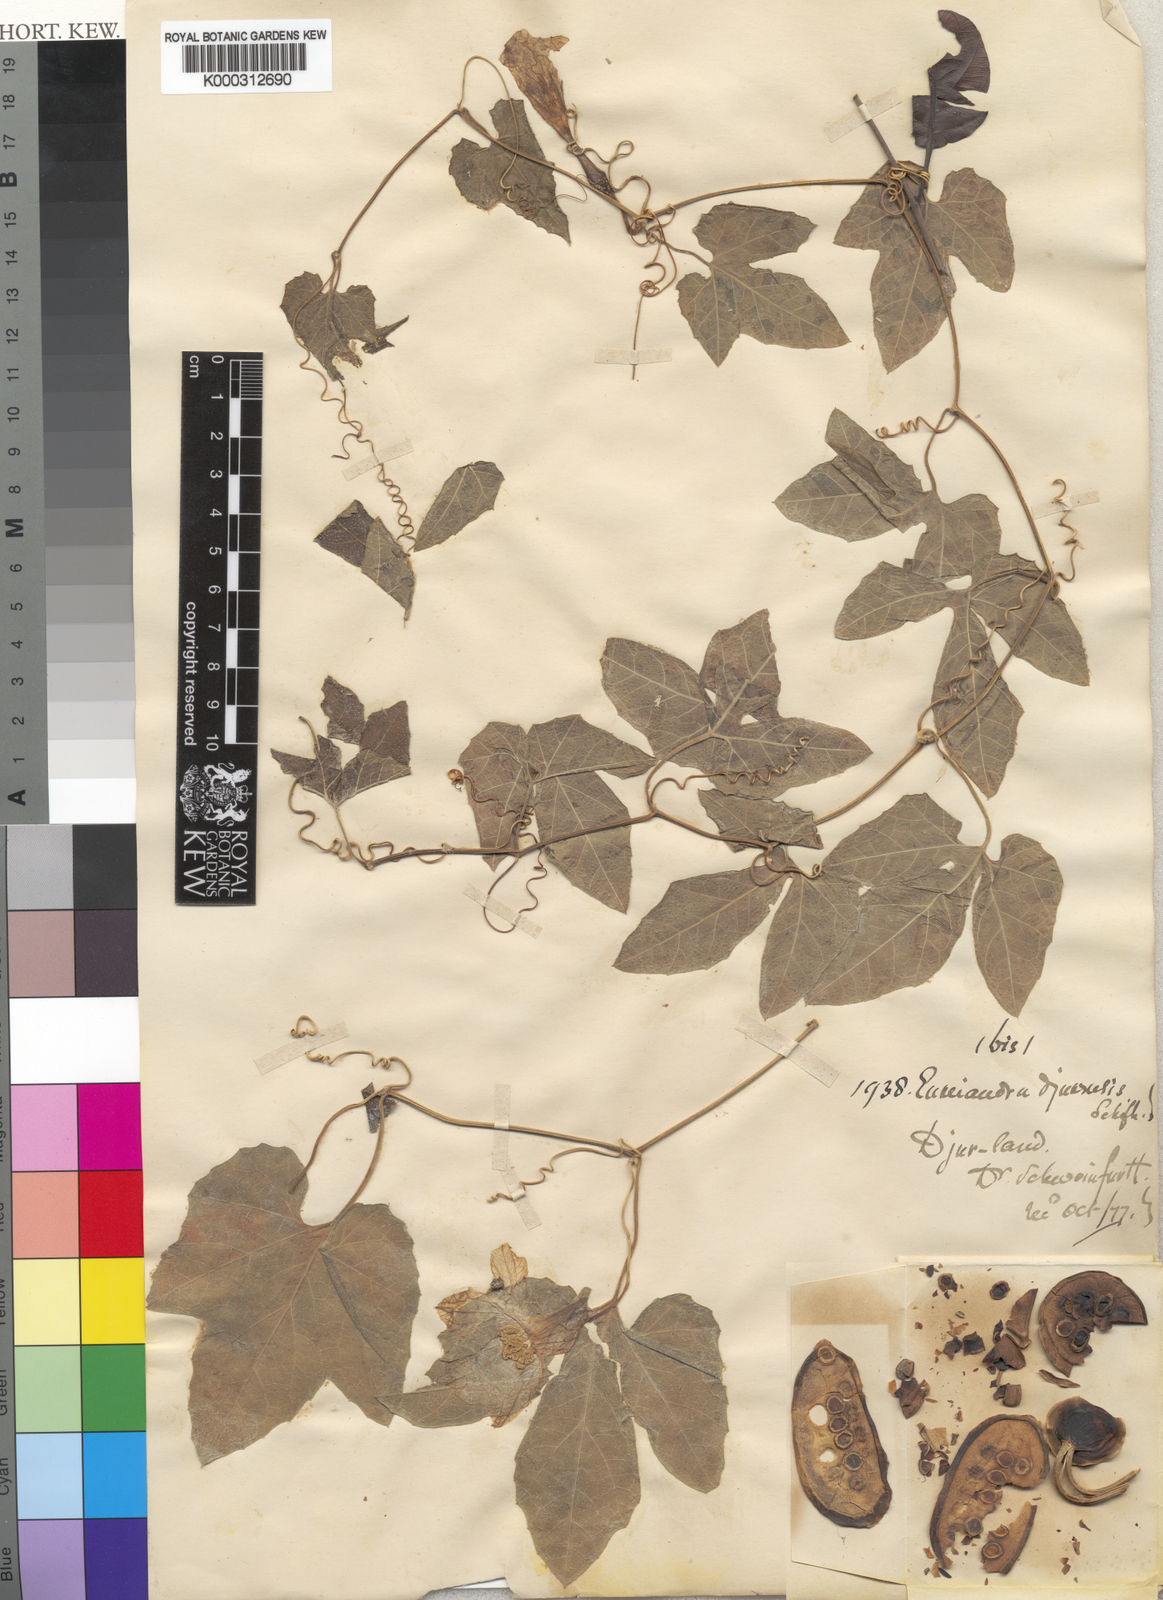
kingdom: Plantae
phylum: Tracheophyta
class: Magnoliopsida
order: Cucurbitales
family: Cucurbitaceae
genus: Eureiandra
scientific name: Eureiandra formosa
